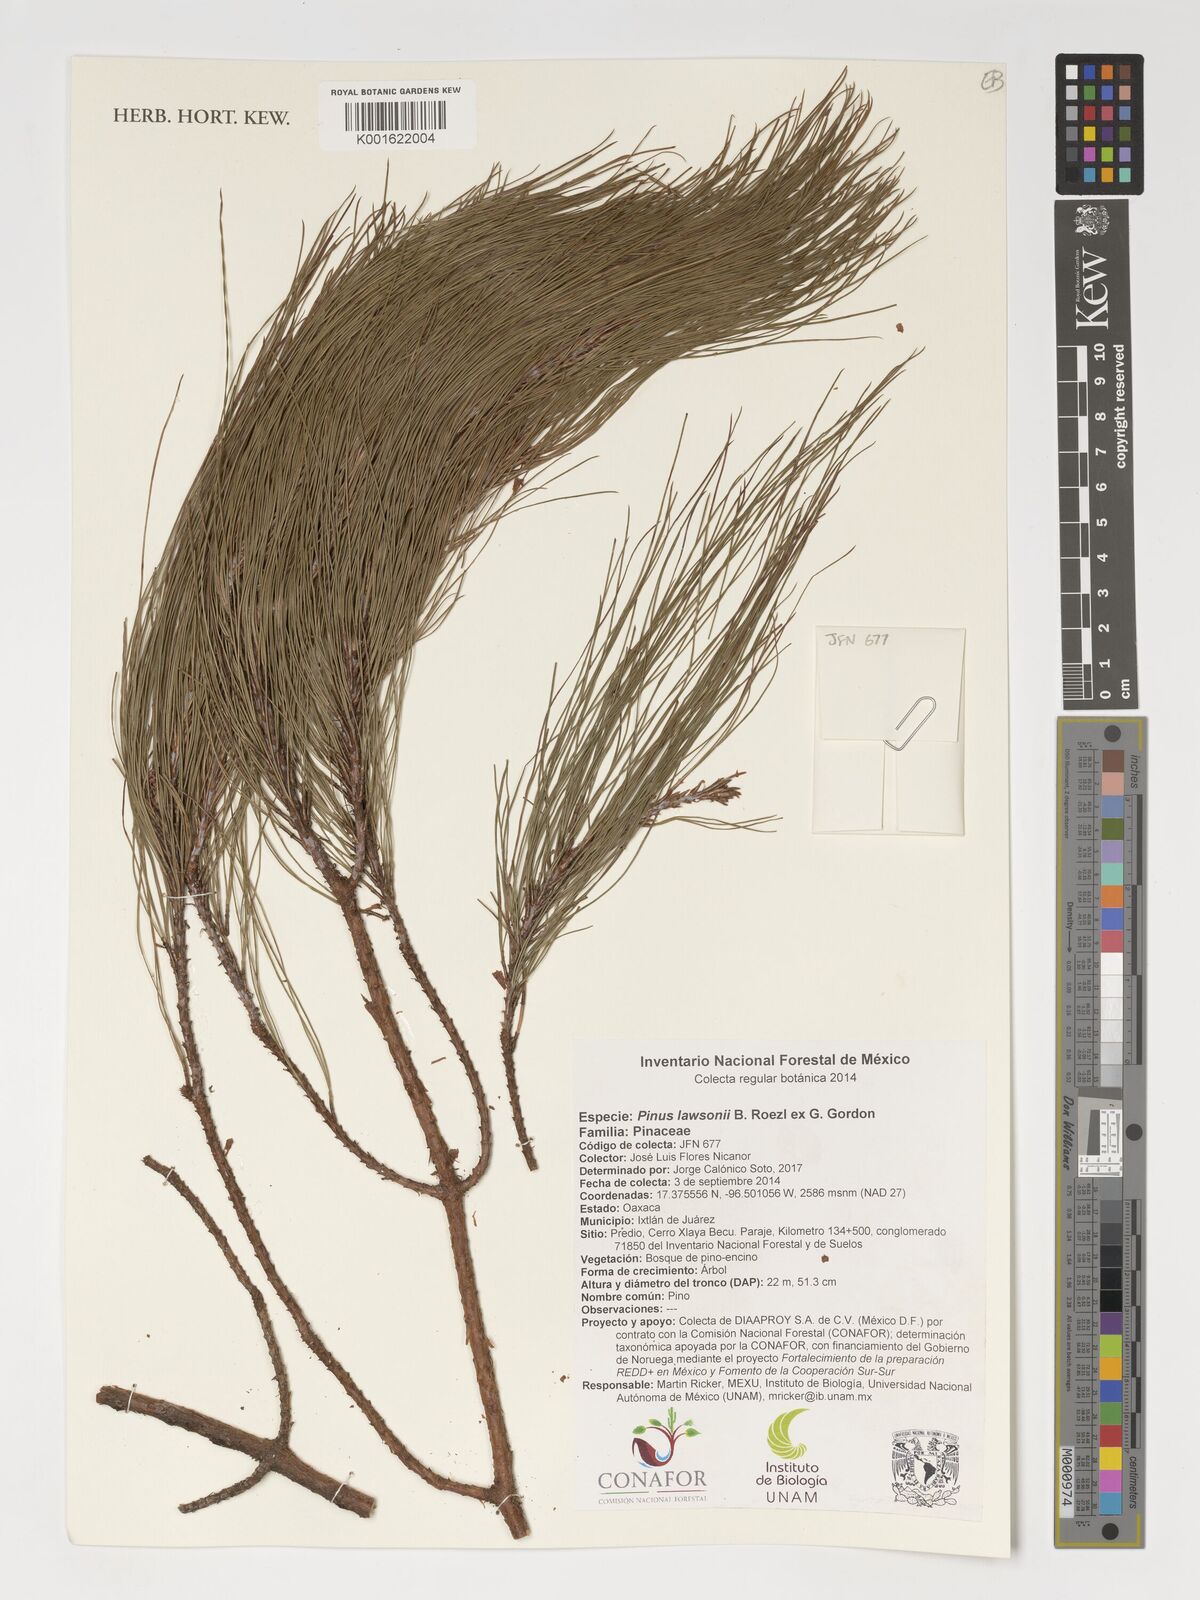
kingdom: Plantae
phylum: Tracheophyta
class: Pinopsida
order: Pinales
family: Pinaceae
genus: Pinus
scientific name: Pinus lawsonii
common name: Lawson's pine
